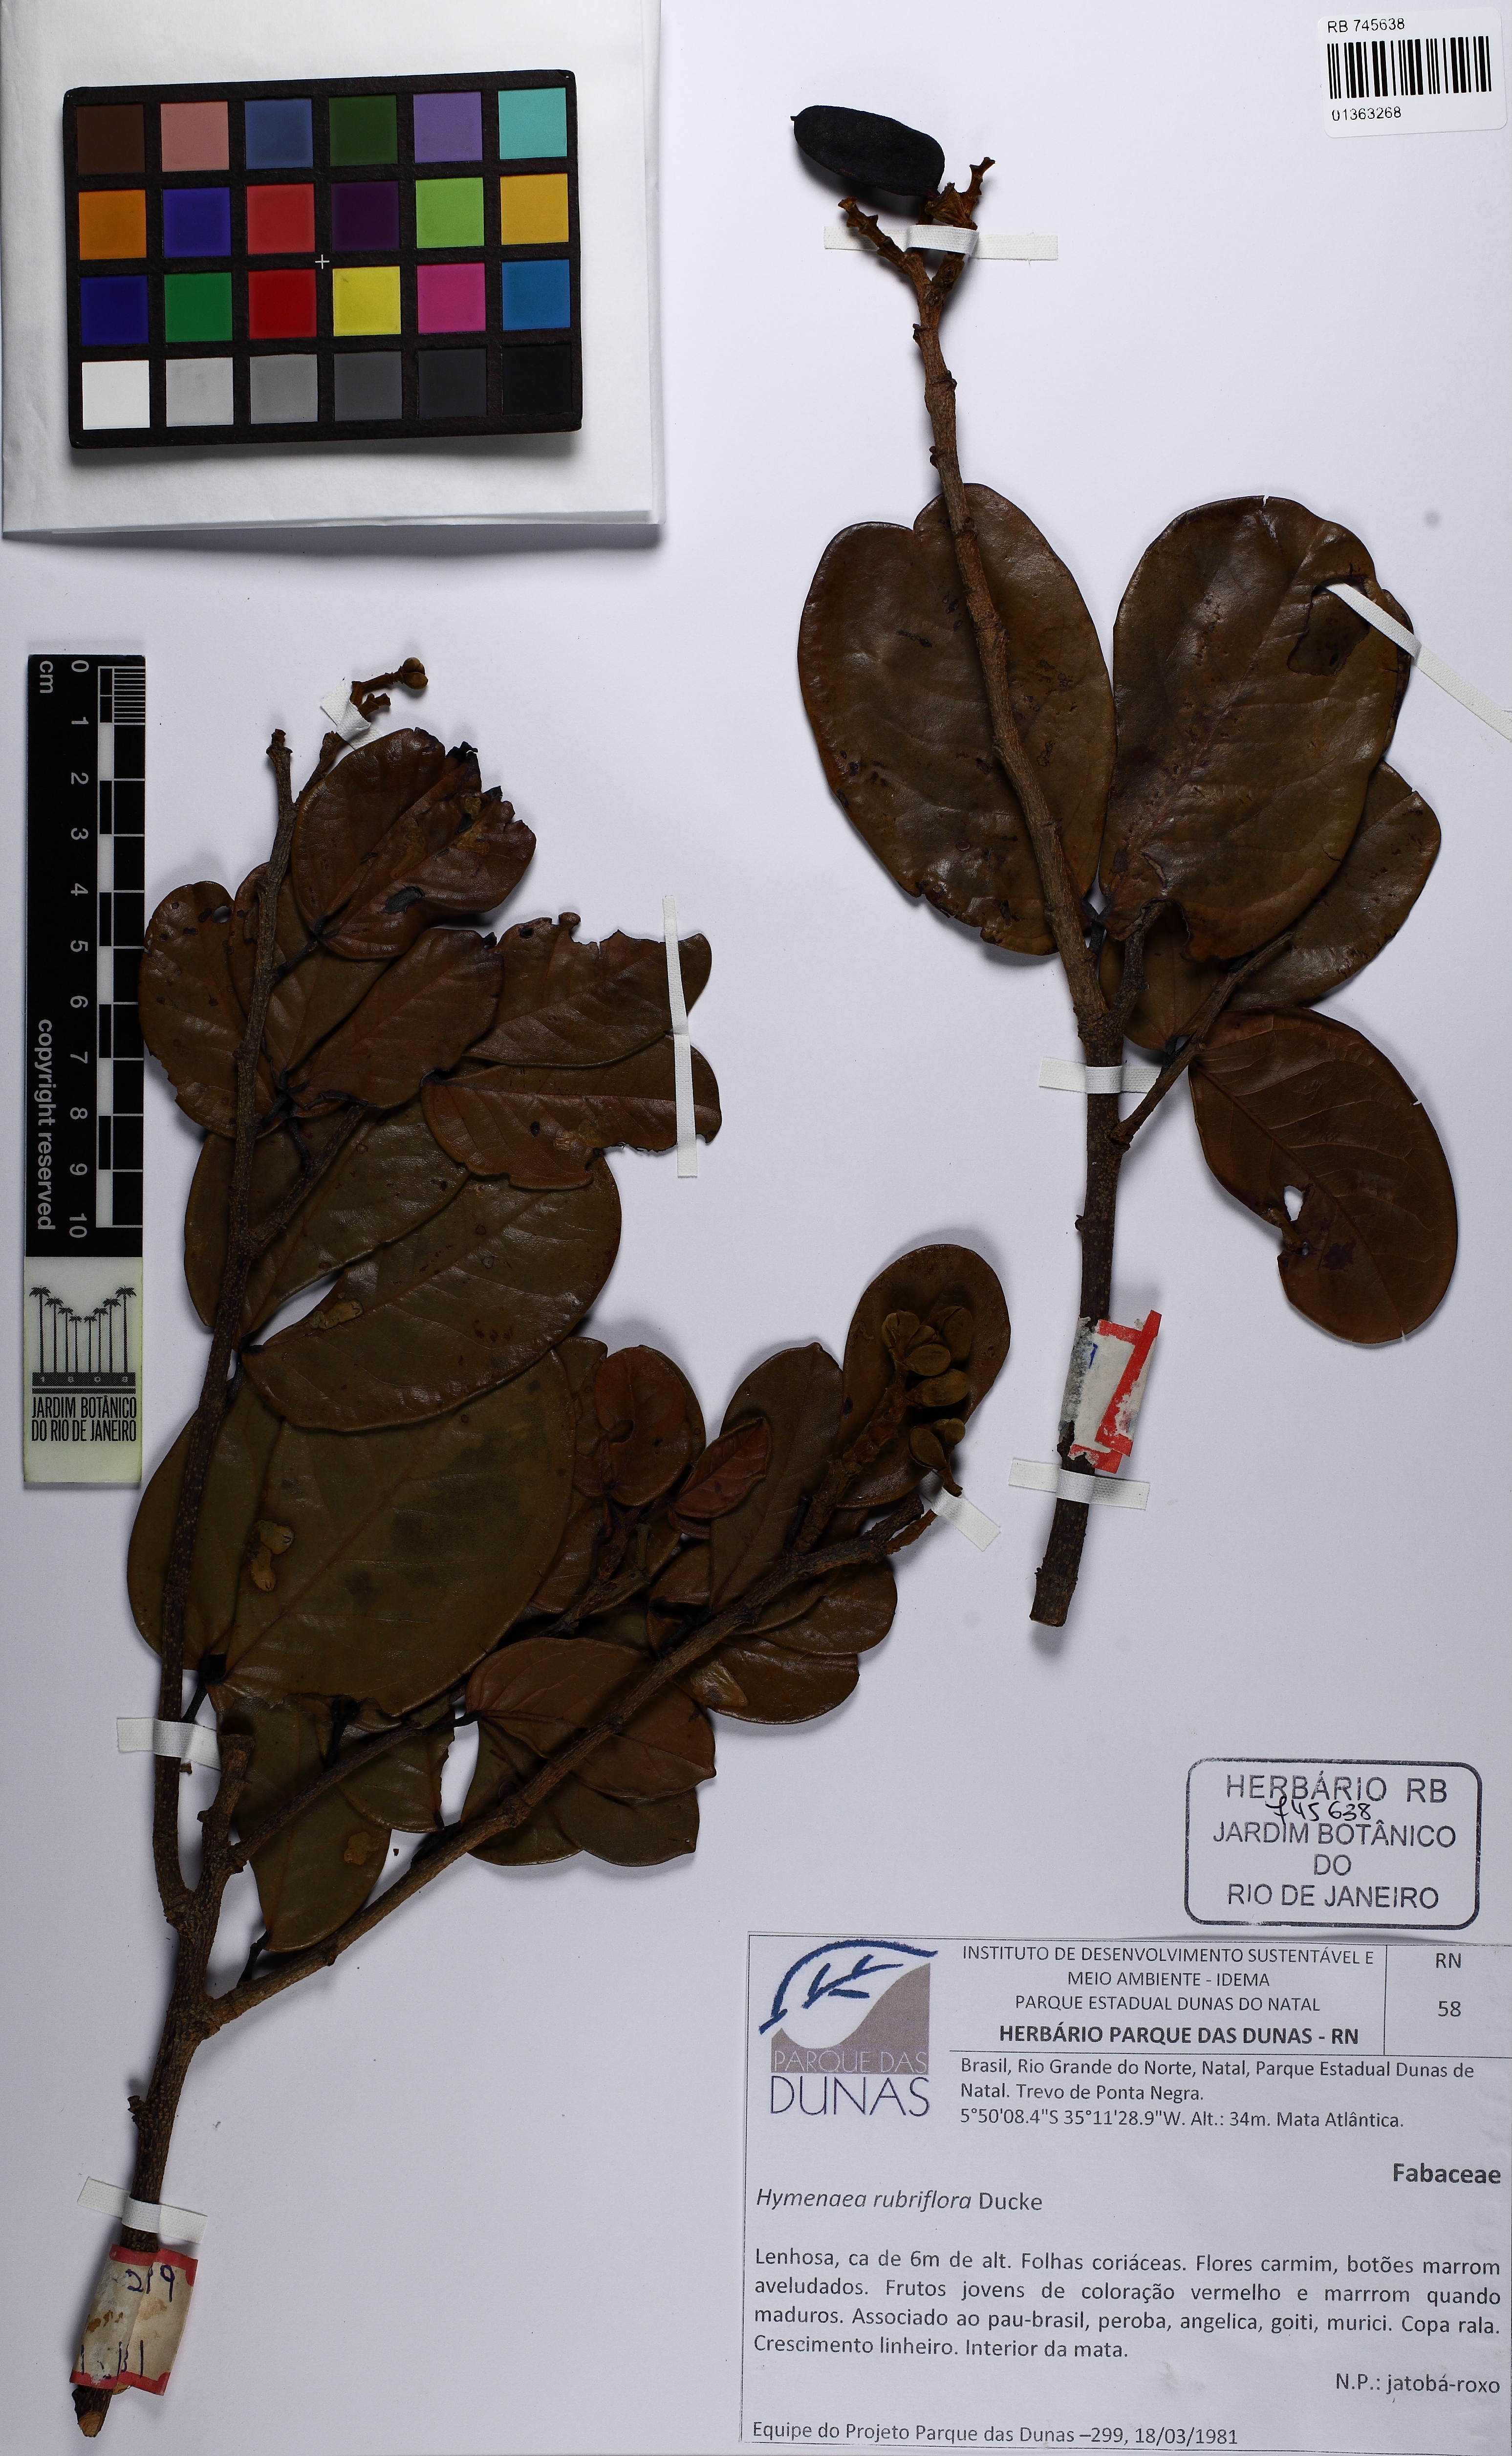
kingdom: Plantae
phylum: Tracheophyta
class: Magnoliopsida
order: Fabales
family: Fabaceae
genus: Hymenaea
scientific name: Hymenaea rubriflora
